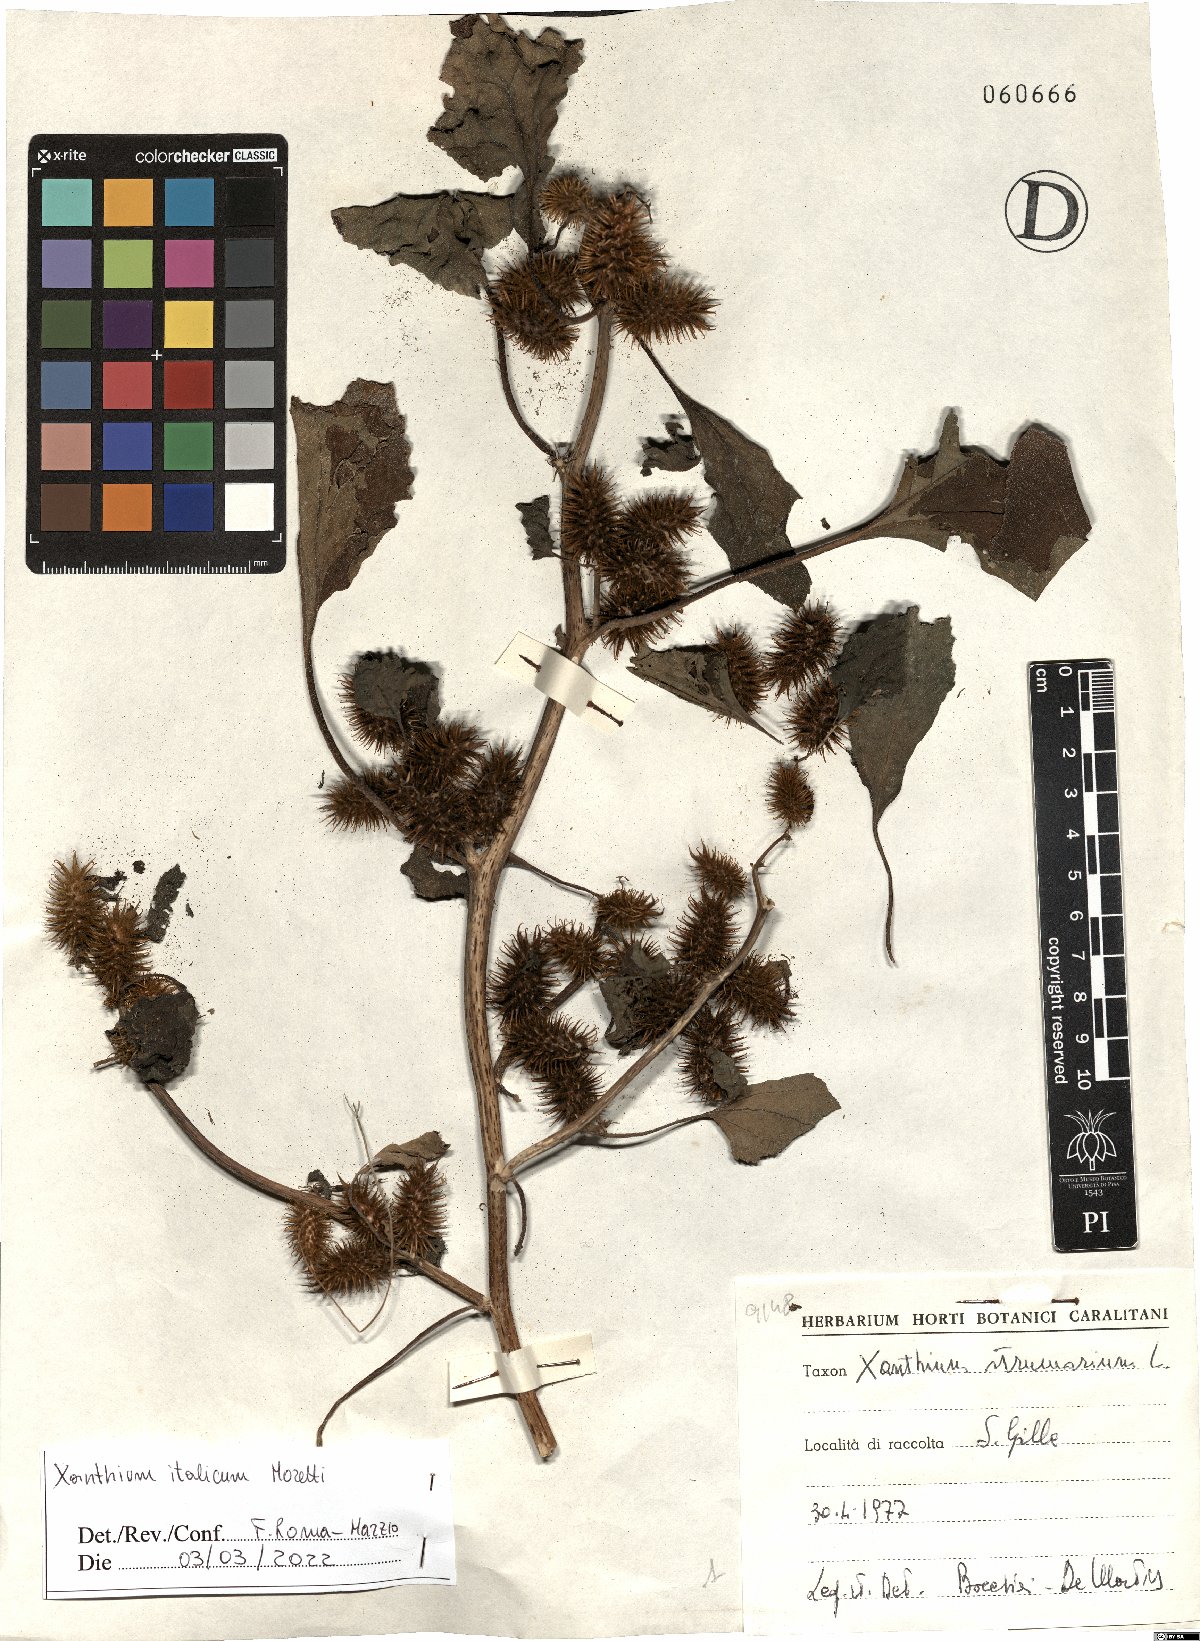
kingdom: Plantae
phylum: Tracheophyta
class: Magnoliopsida
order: Asterales
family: Asteraceae
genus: Xanthium
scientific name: Xanthium orientale
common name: Californian burr
